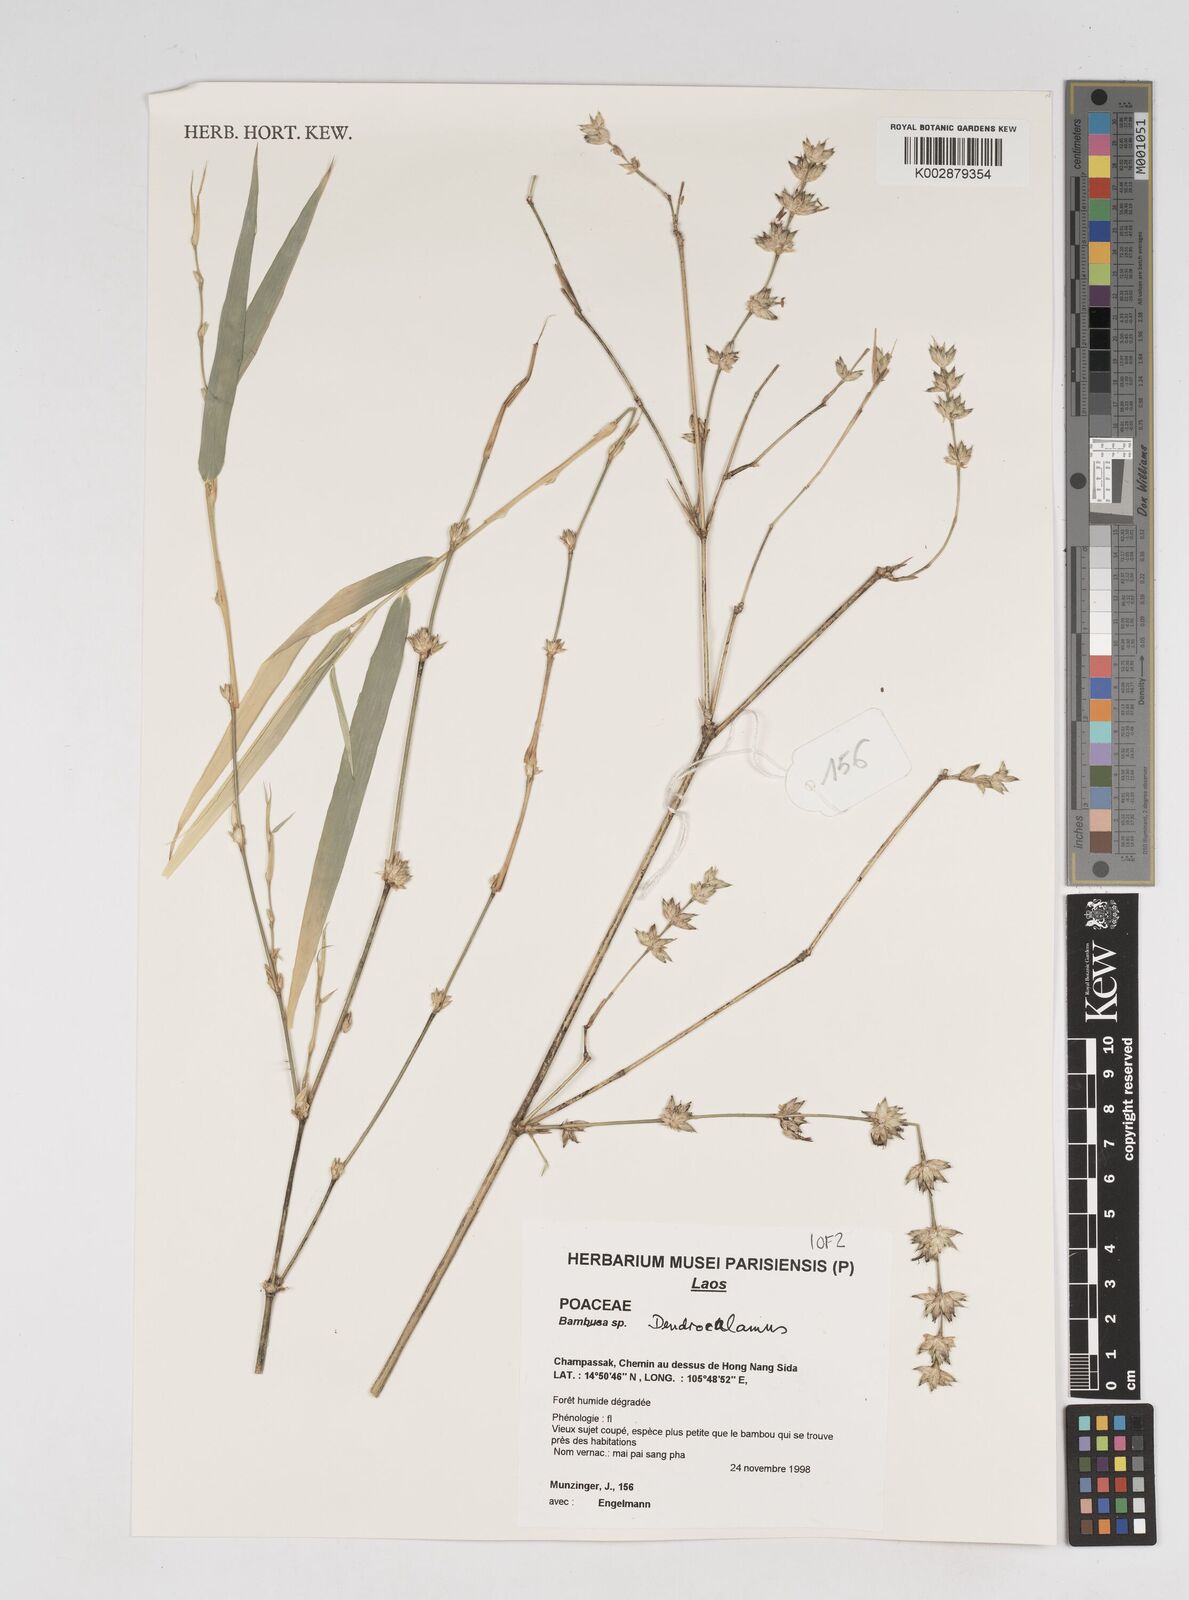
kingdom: Plantae
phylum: Tracheophyta
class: Liliopsida
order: Poales
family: Poaceae
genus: Dendrocalamus
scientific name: Dendrocalamus
